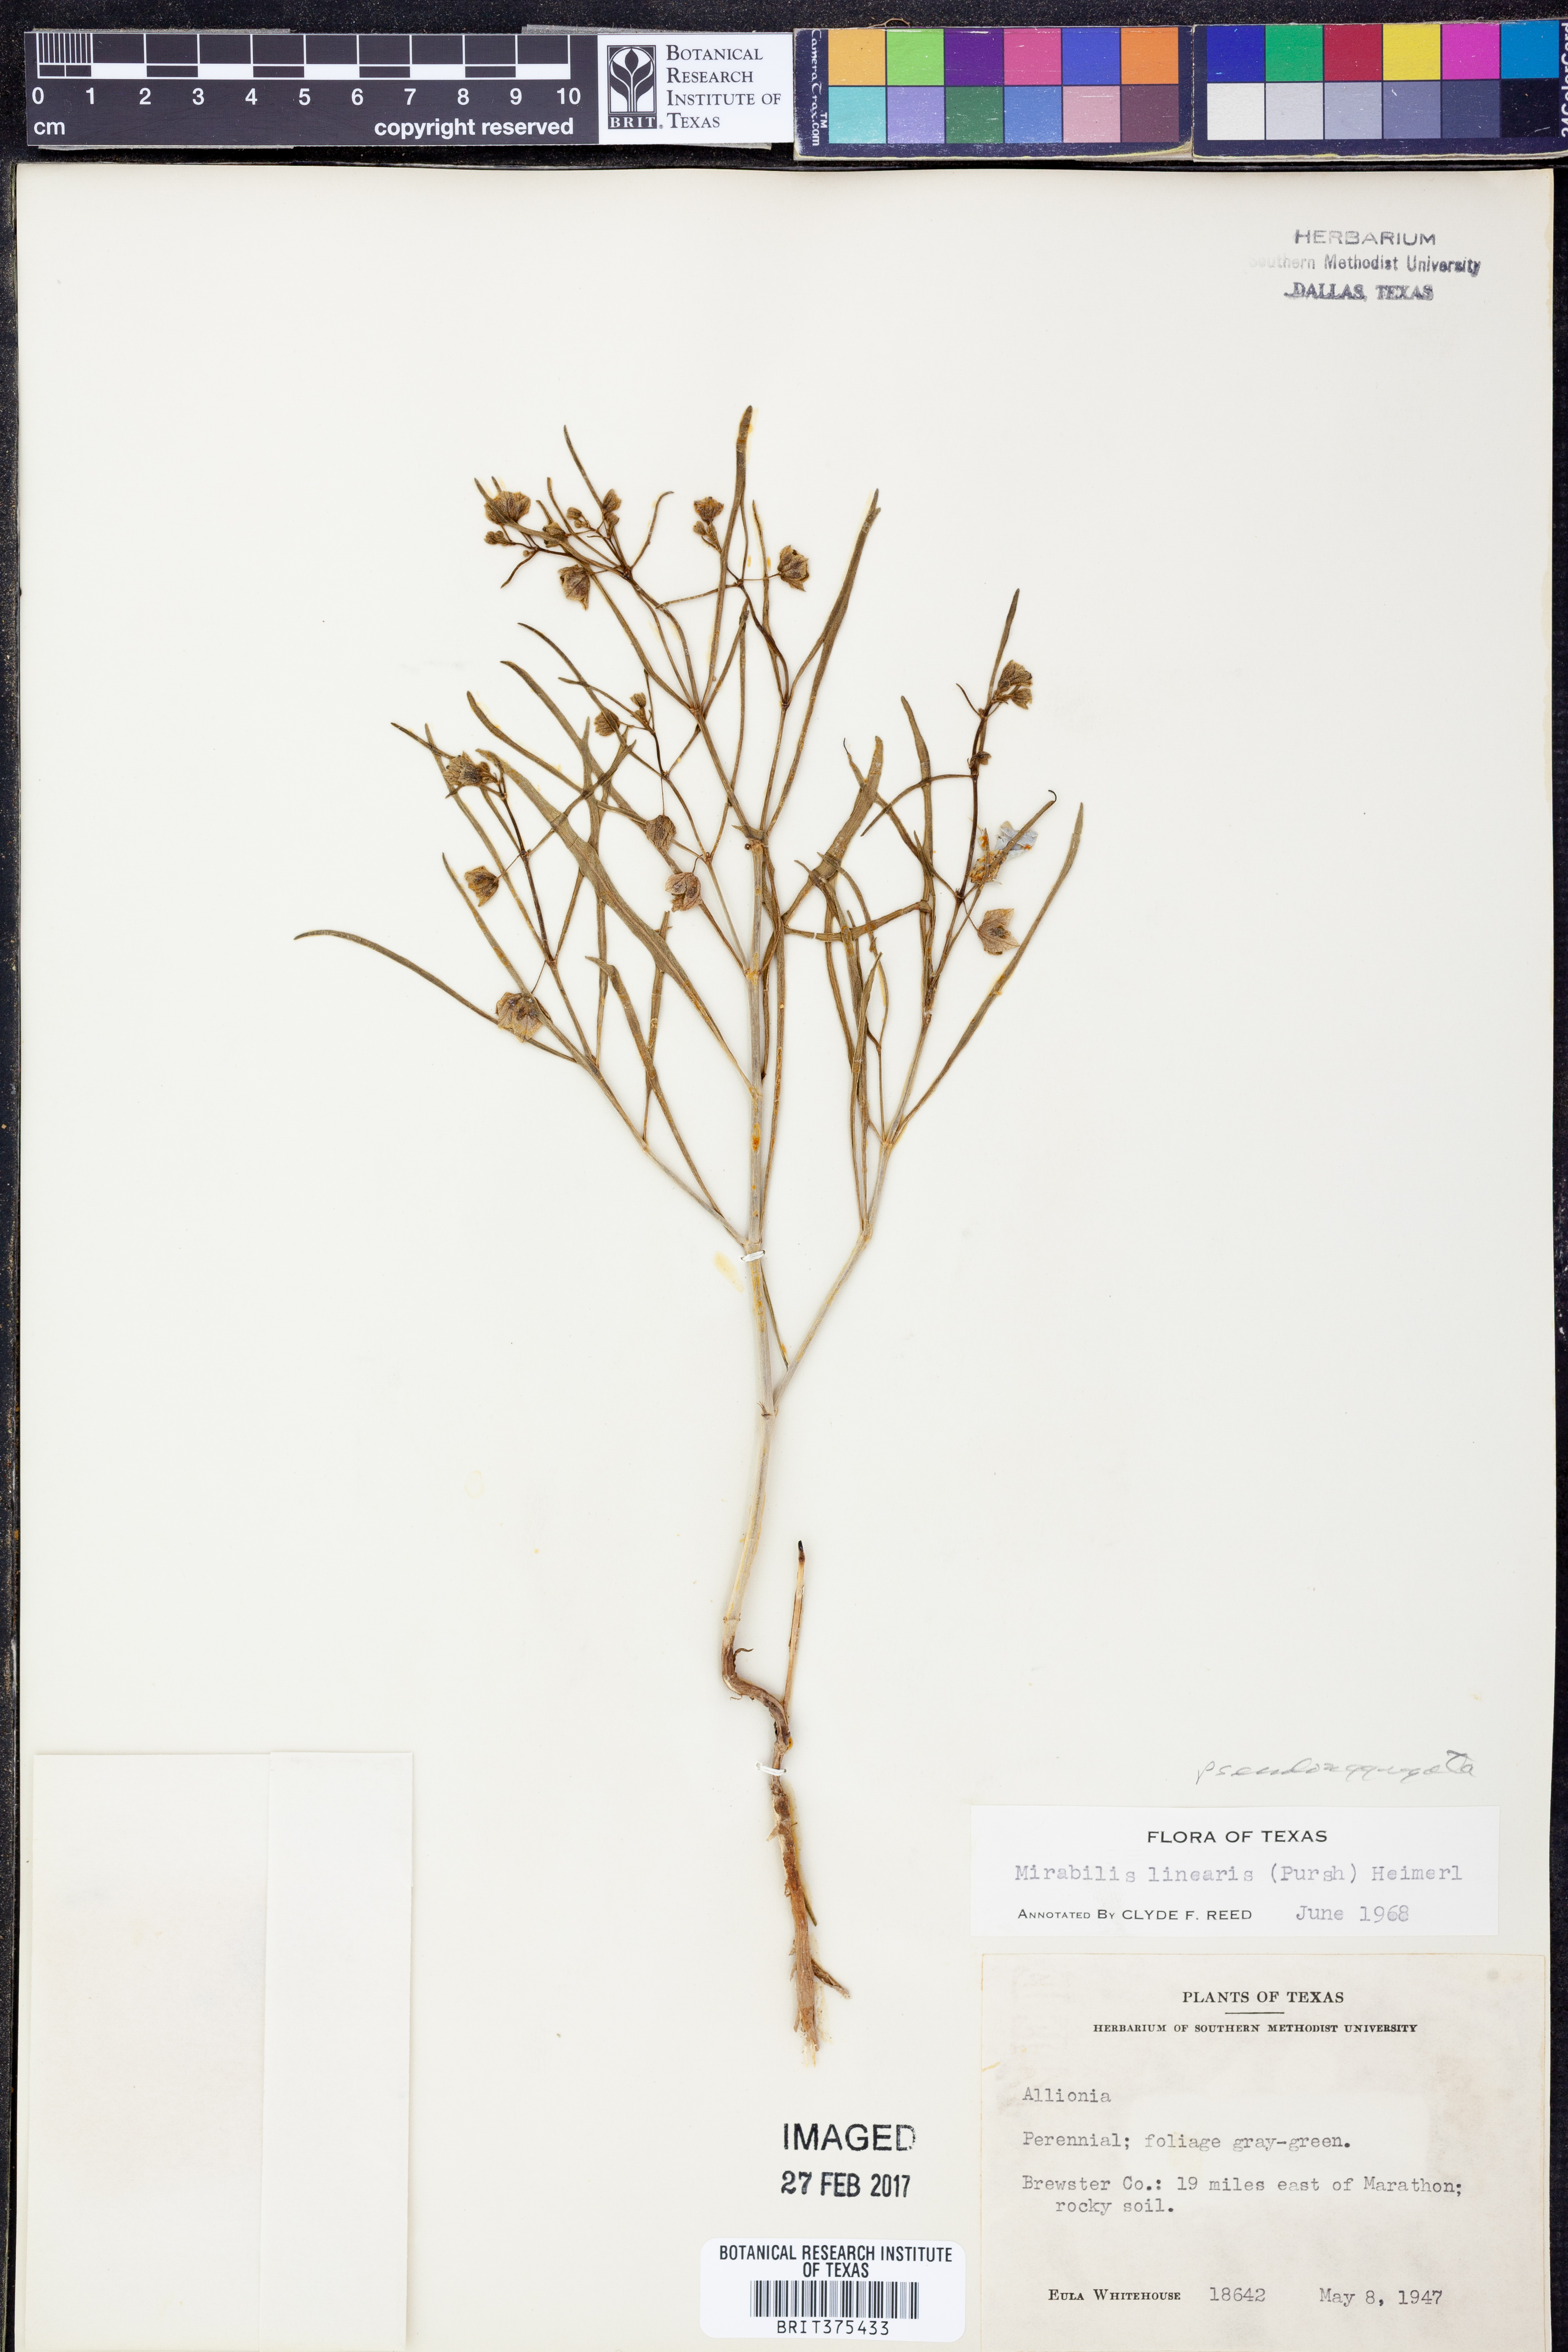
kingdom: Plantae
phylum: Tracheophyta
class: Magnoliopsida
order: Caryophyllales
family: Nyctaginaceae
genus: Mirabilis
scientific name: Mirabilis albida
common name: Hairy four-o'clock
